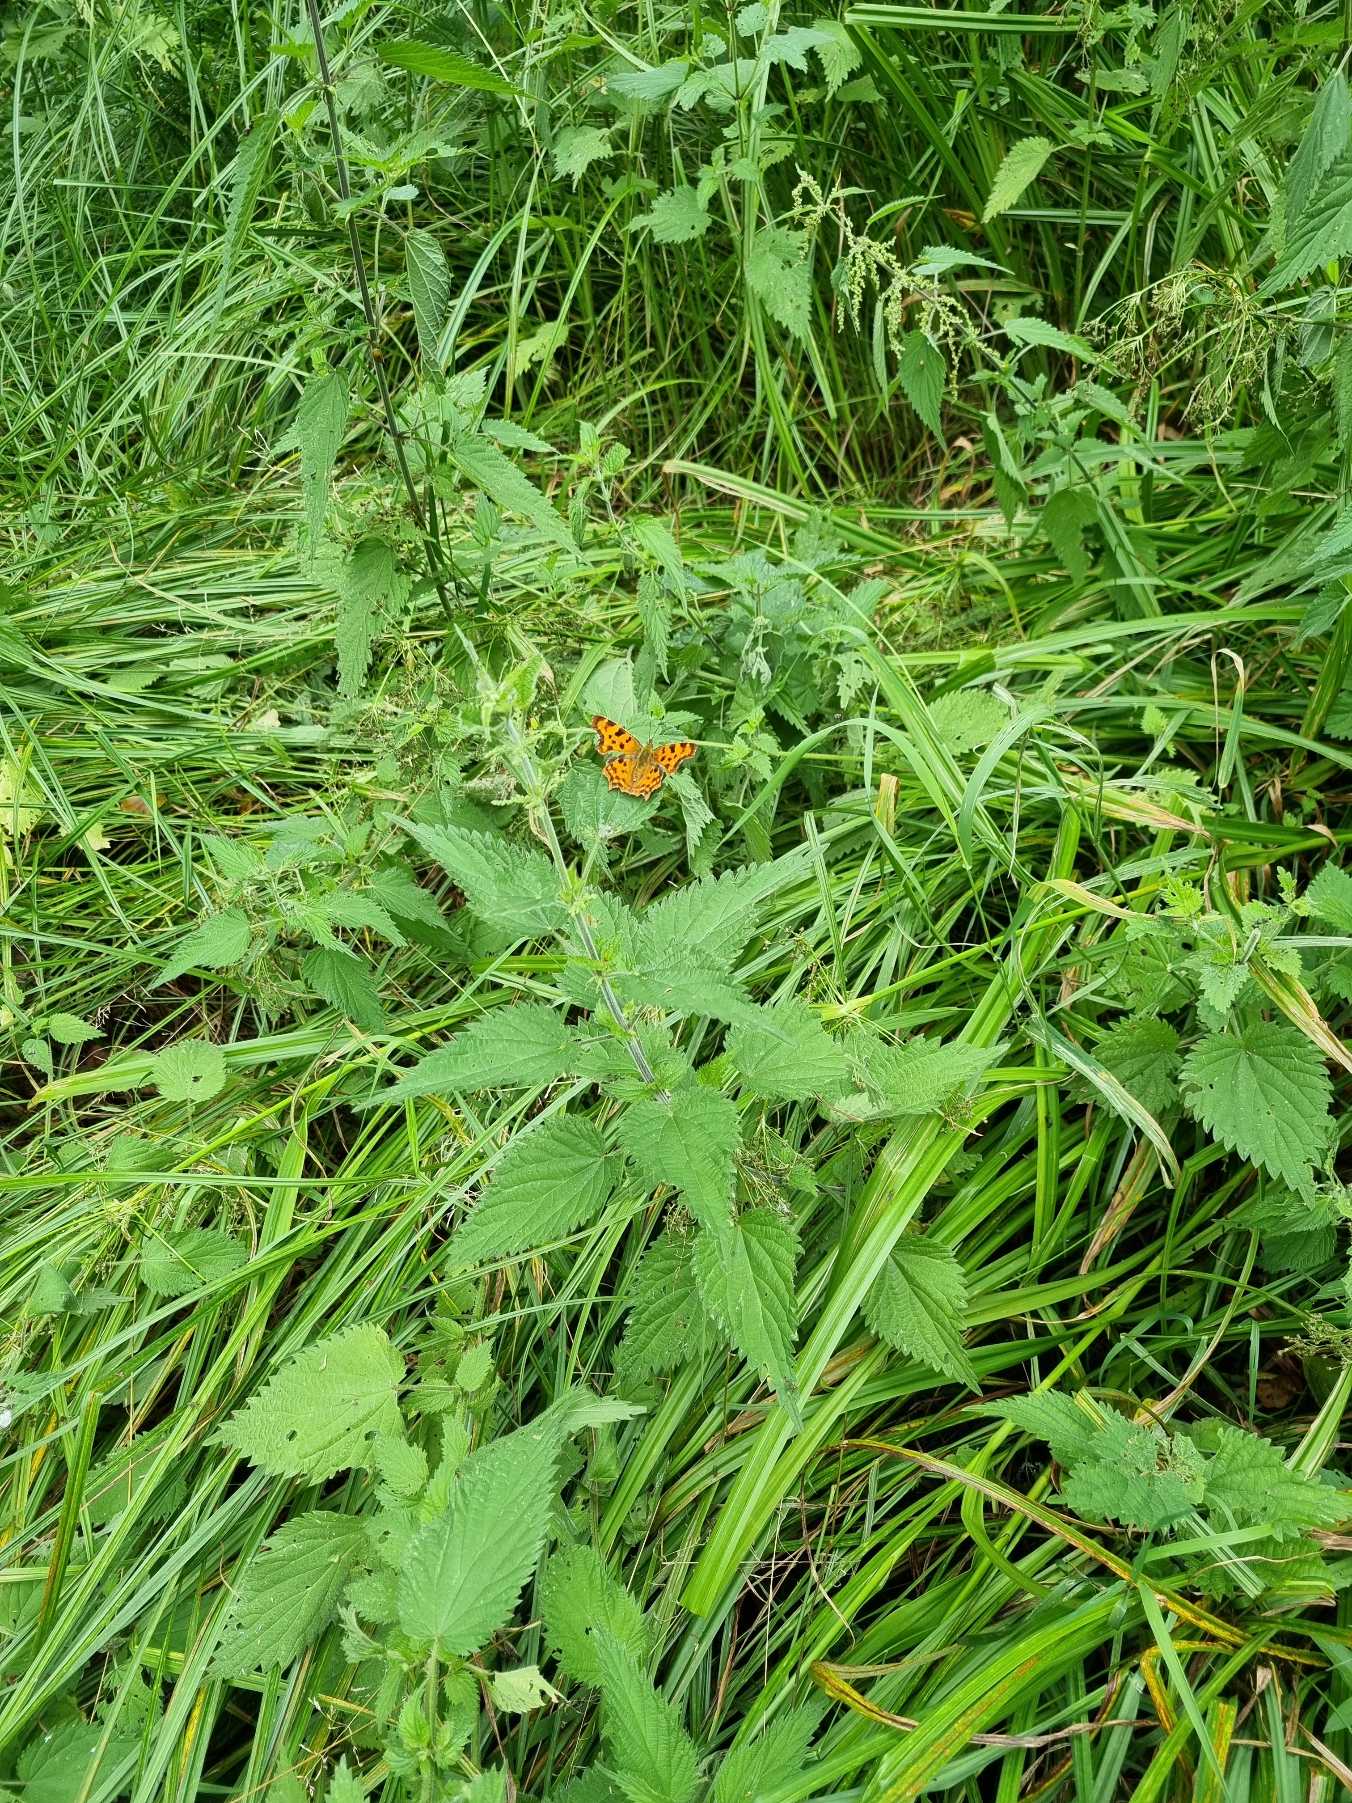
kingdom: Animalia
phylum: Arthropoda
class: Insecta
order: Lepidoptera
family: Nymphalidae
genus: Polygonia
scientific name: Polygonia c-album
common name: Det hvide C
